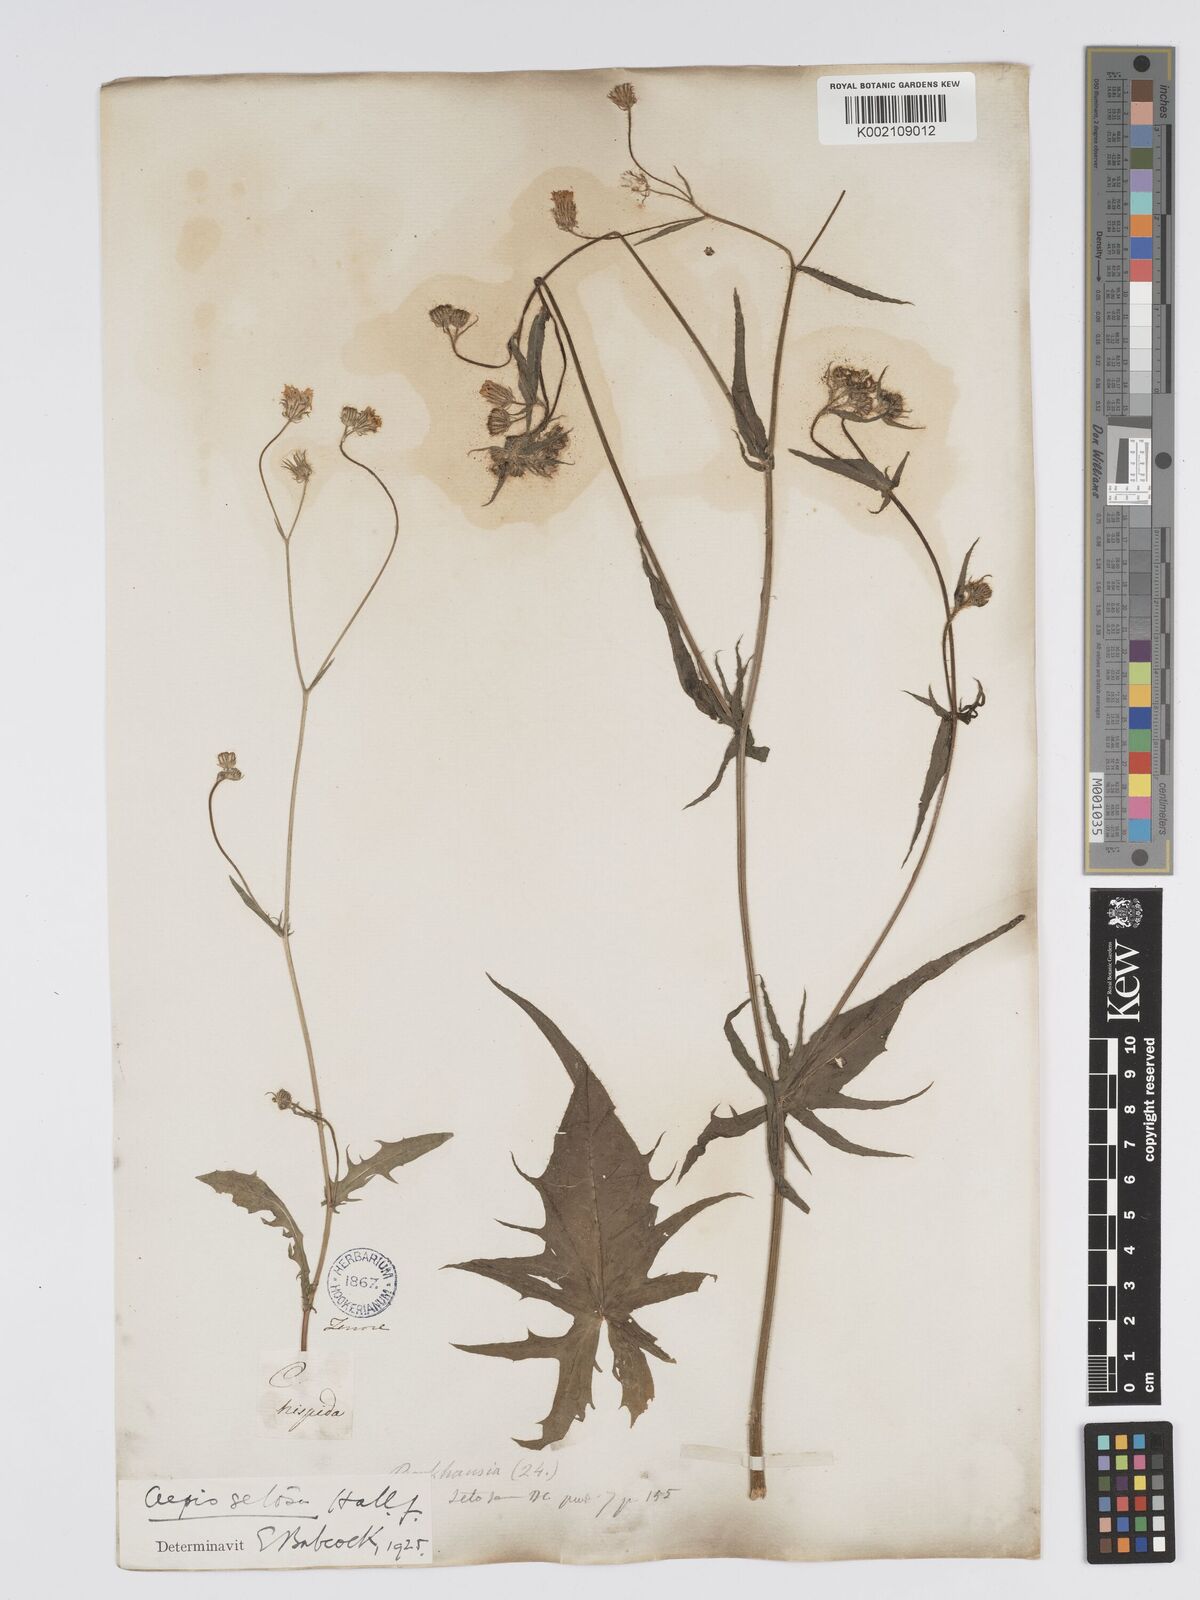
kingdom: Plantae
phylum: Tracheophyta
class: Magnoliopsida
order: Asterales
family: Asteraceae
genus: Crepis
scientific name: Crepis setosa
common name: Bristly hawk's-beard
